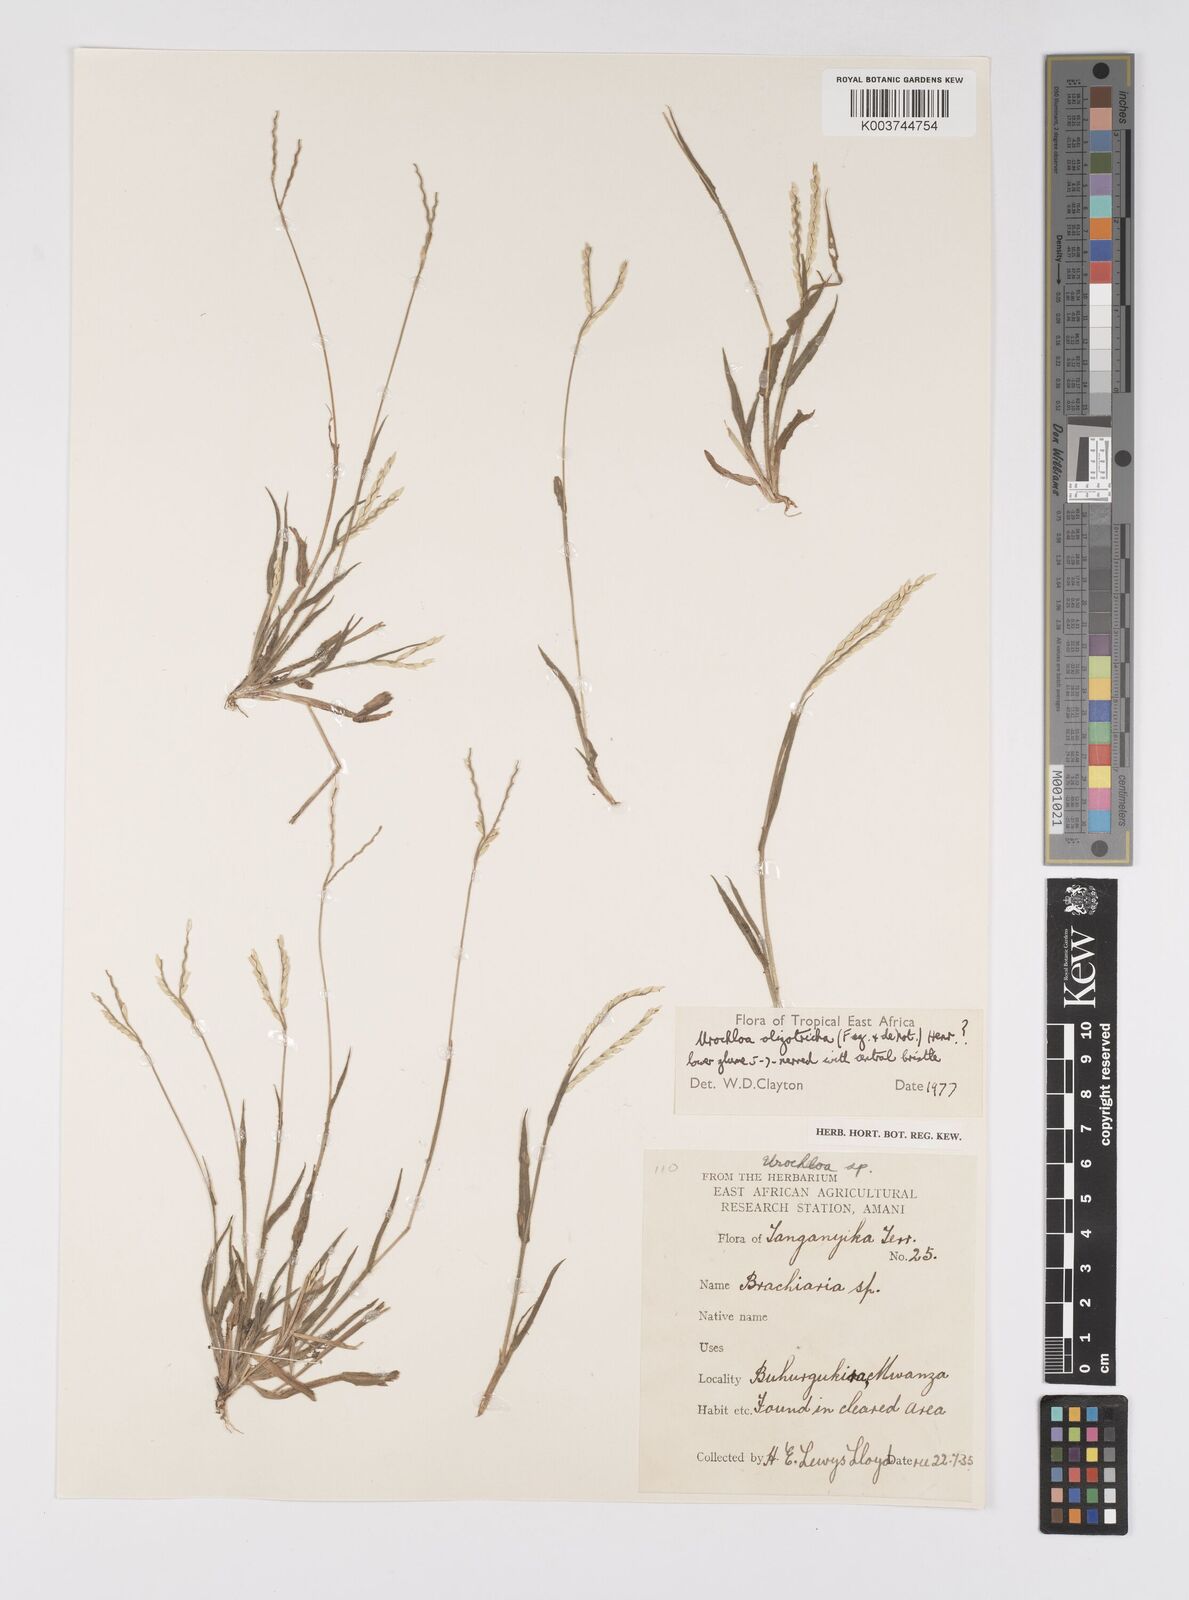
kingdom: Plantae
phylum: Tracheophyta
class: Liliopsida
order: Poales
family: Poaceae
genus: Urochloa
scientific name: Urochloa oligotricha
